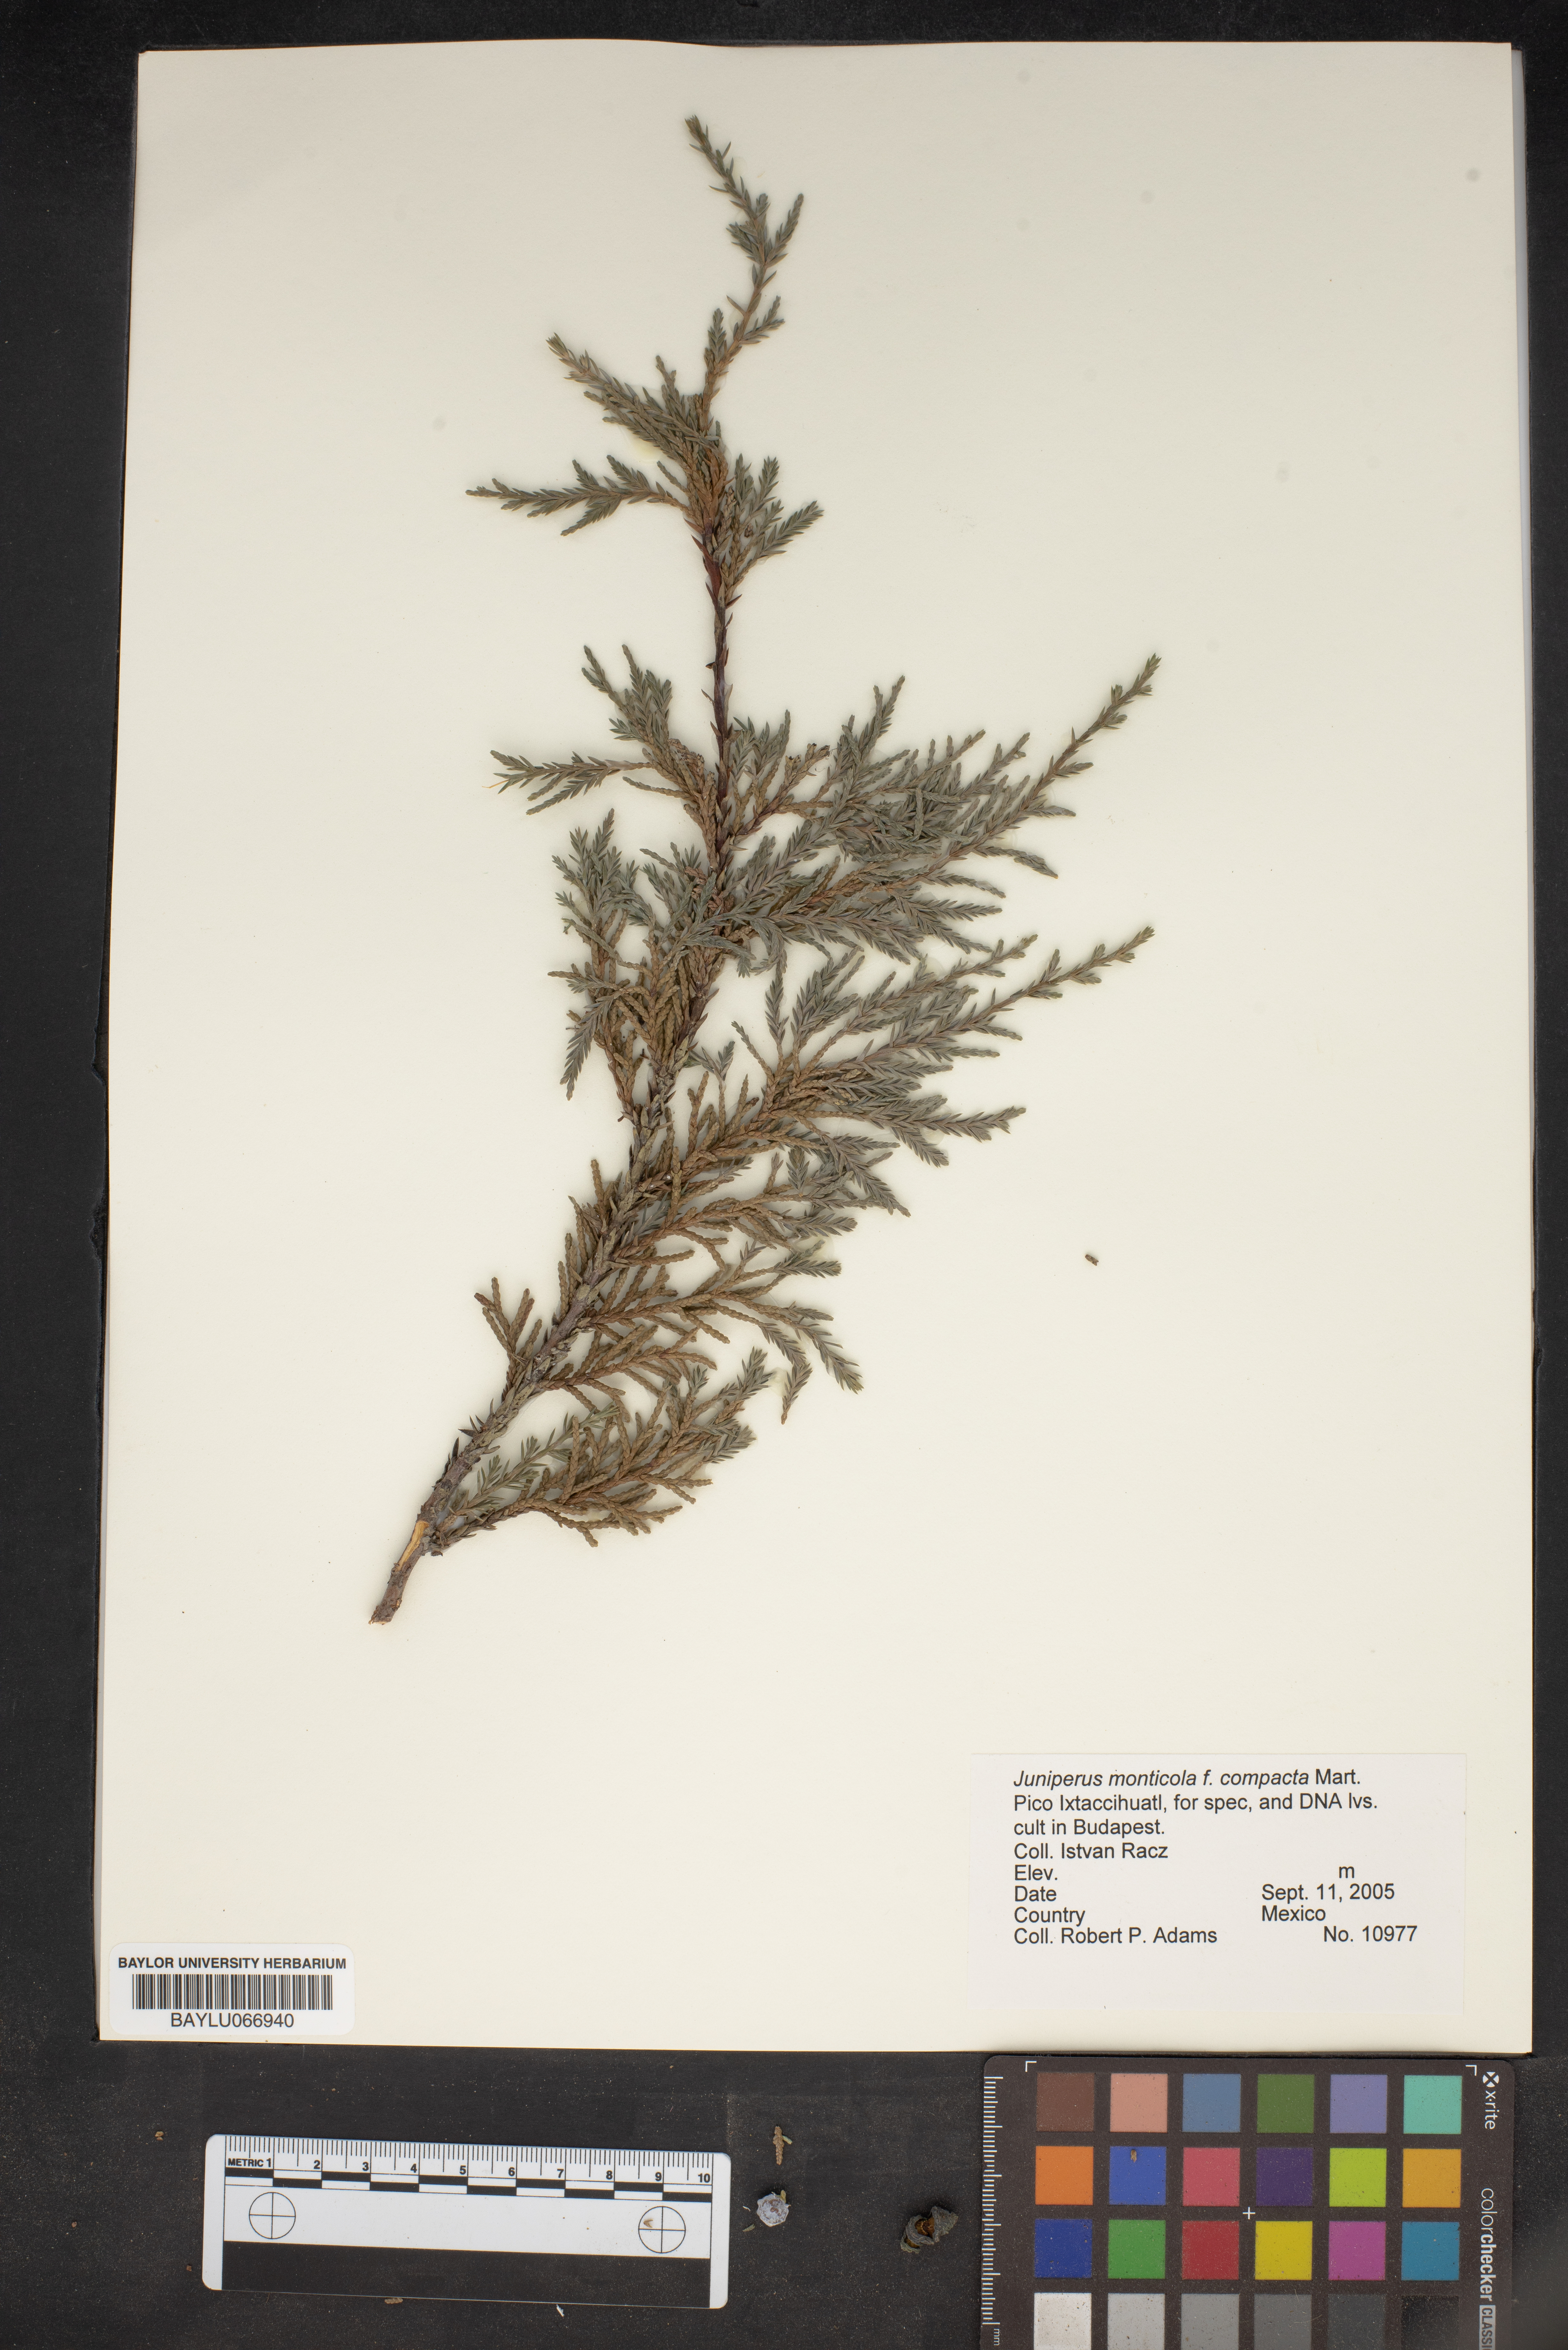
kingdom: Plantae
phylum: Tracheophyta
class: Pinopsida
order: Pinales
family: Cupressaceae
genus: Juniperus
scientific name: Juniperus monticola
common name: Mexican juniper
